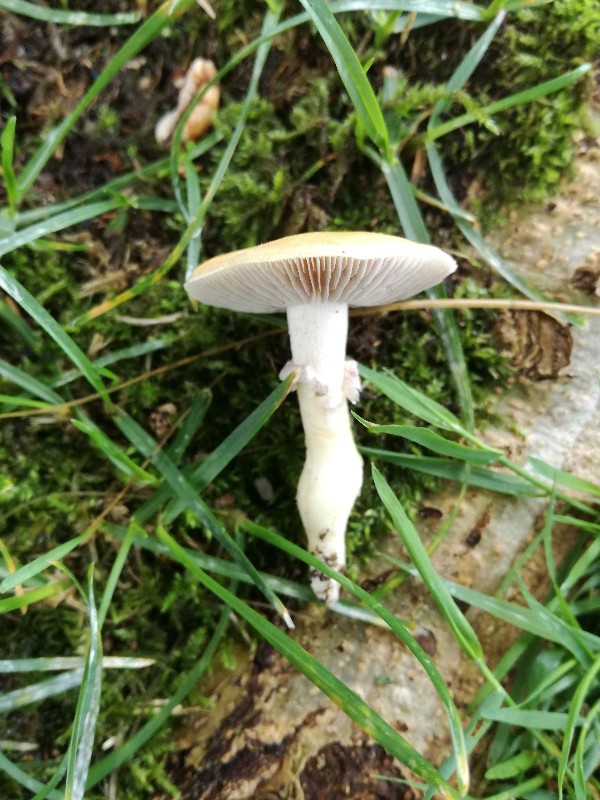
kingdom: Fungi
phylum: Basidiomycota
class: Agaricomycetes
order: Agaricales
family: Hymenogastraceae
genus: Psilocybe
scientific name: Psilocybe coronilla
